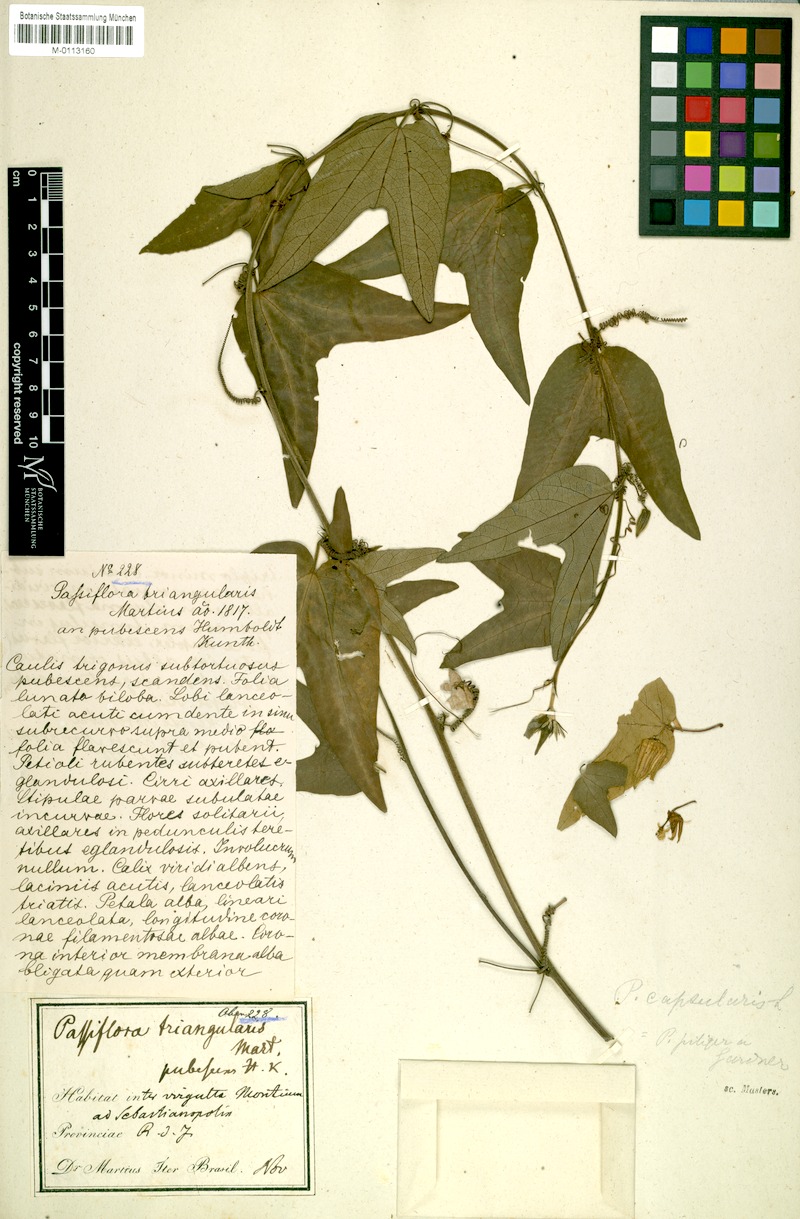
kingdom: Plantae
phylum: Tracheophyta
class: Magnoliopsida
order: Malpighiales
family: Passifloraceae
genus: Passiflora
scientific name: Passiflora capsularis
